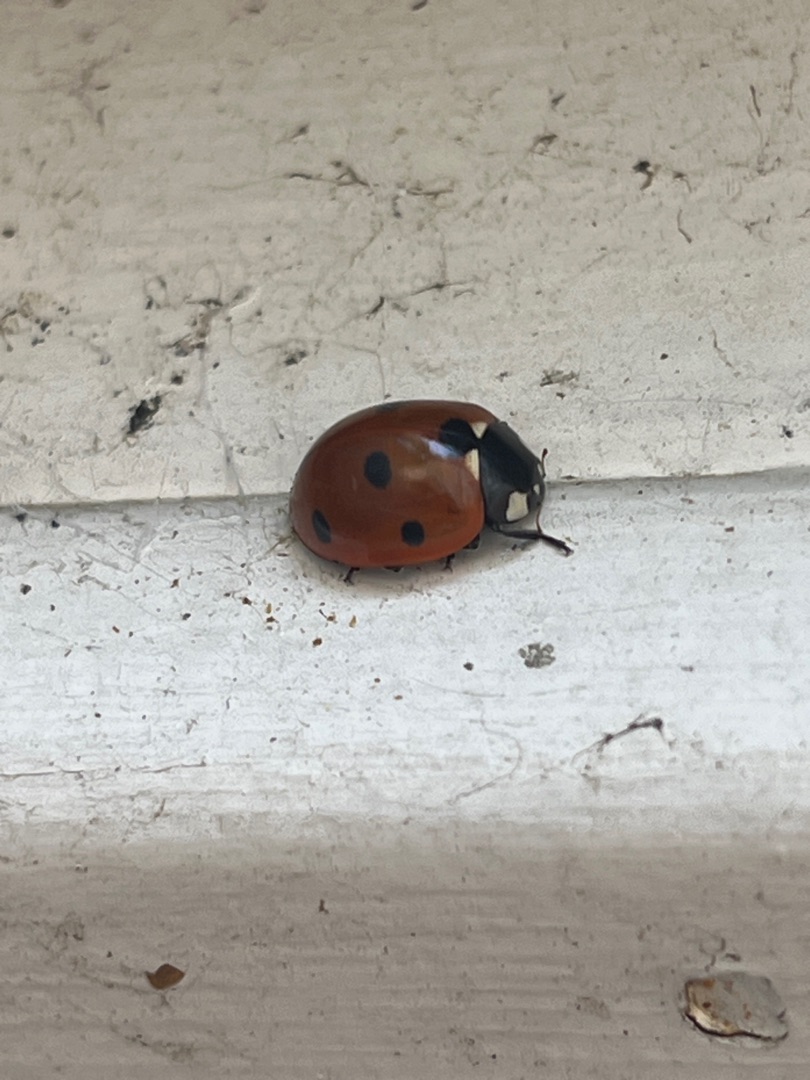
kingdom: Animalia
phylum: Arthropoda
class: Insecta
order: Coleoptera
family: Coccinellidae
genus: Coccinella
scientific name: Coccinella septempunctata
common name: Syvplettet mariehøne
